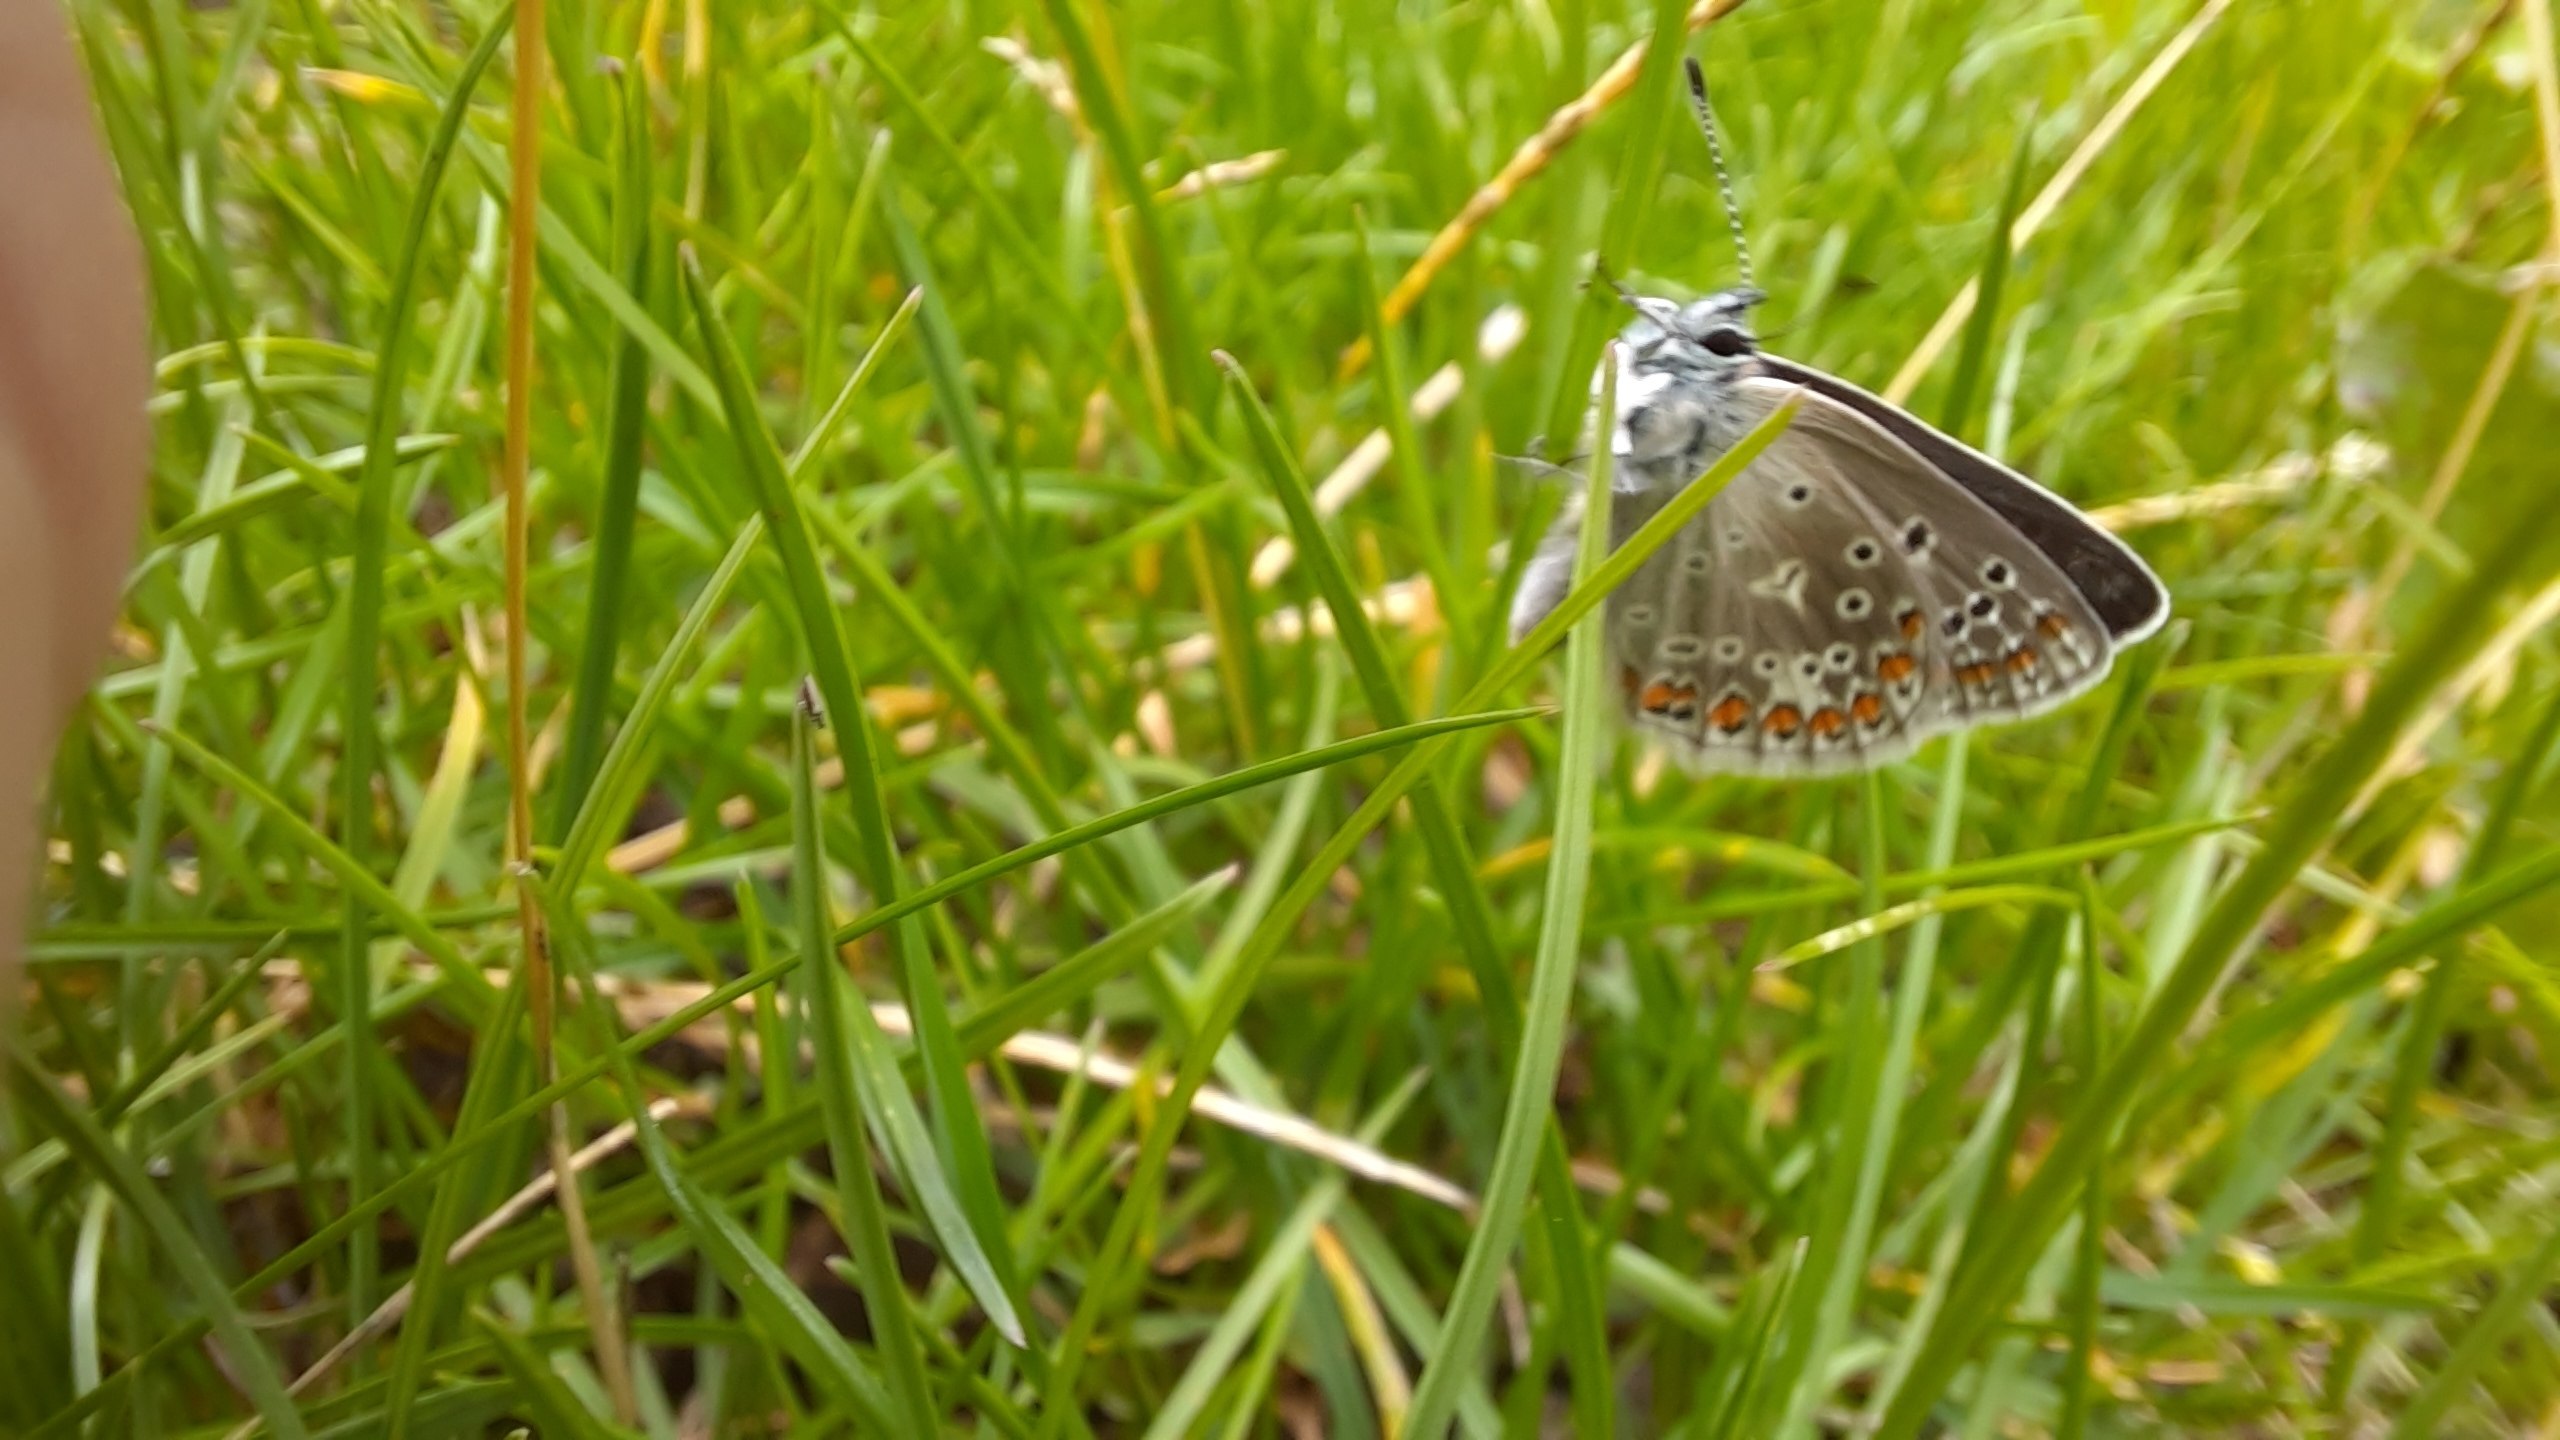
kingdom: Animalia
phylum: Arthropoda
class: Insecta
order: Lepidoptera
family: Lycaenidae
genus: Polyommatus
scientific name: Polyommatus icarus
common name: Almindelig blåfugl
